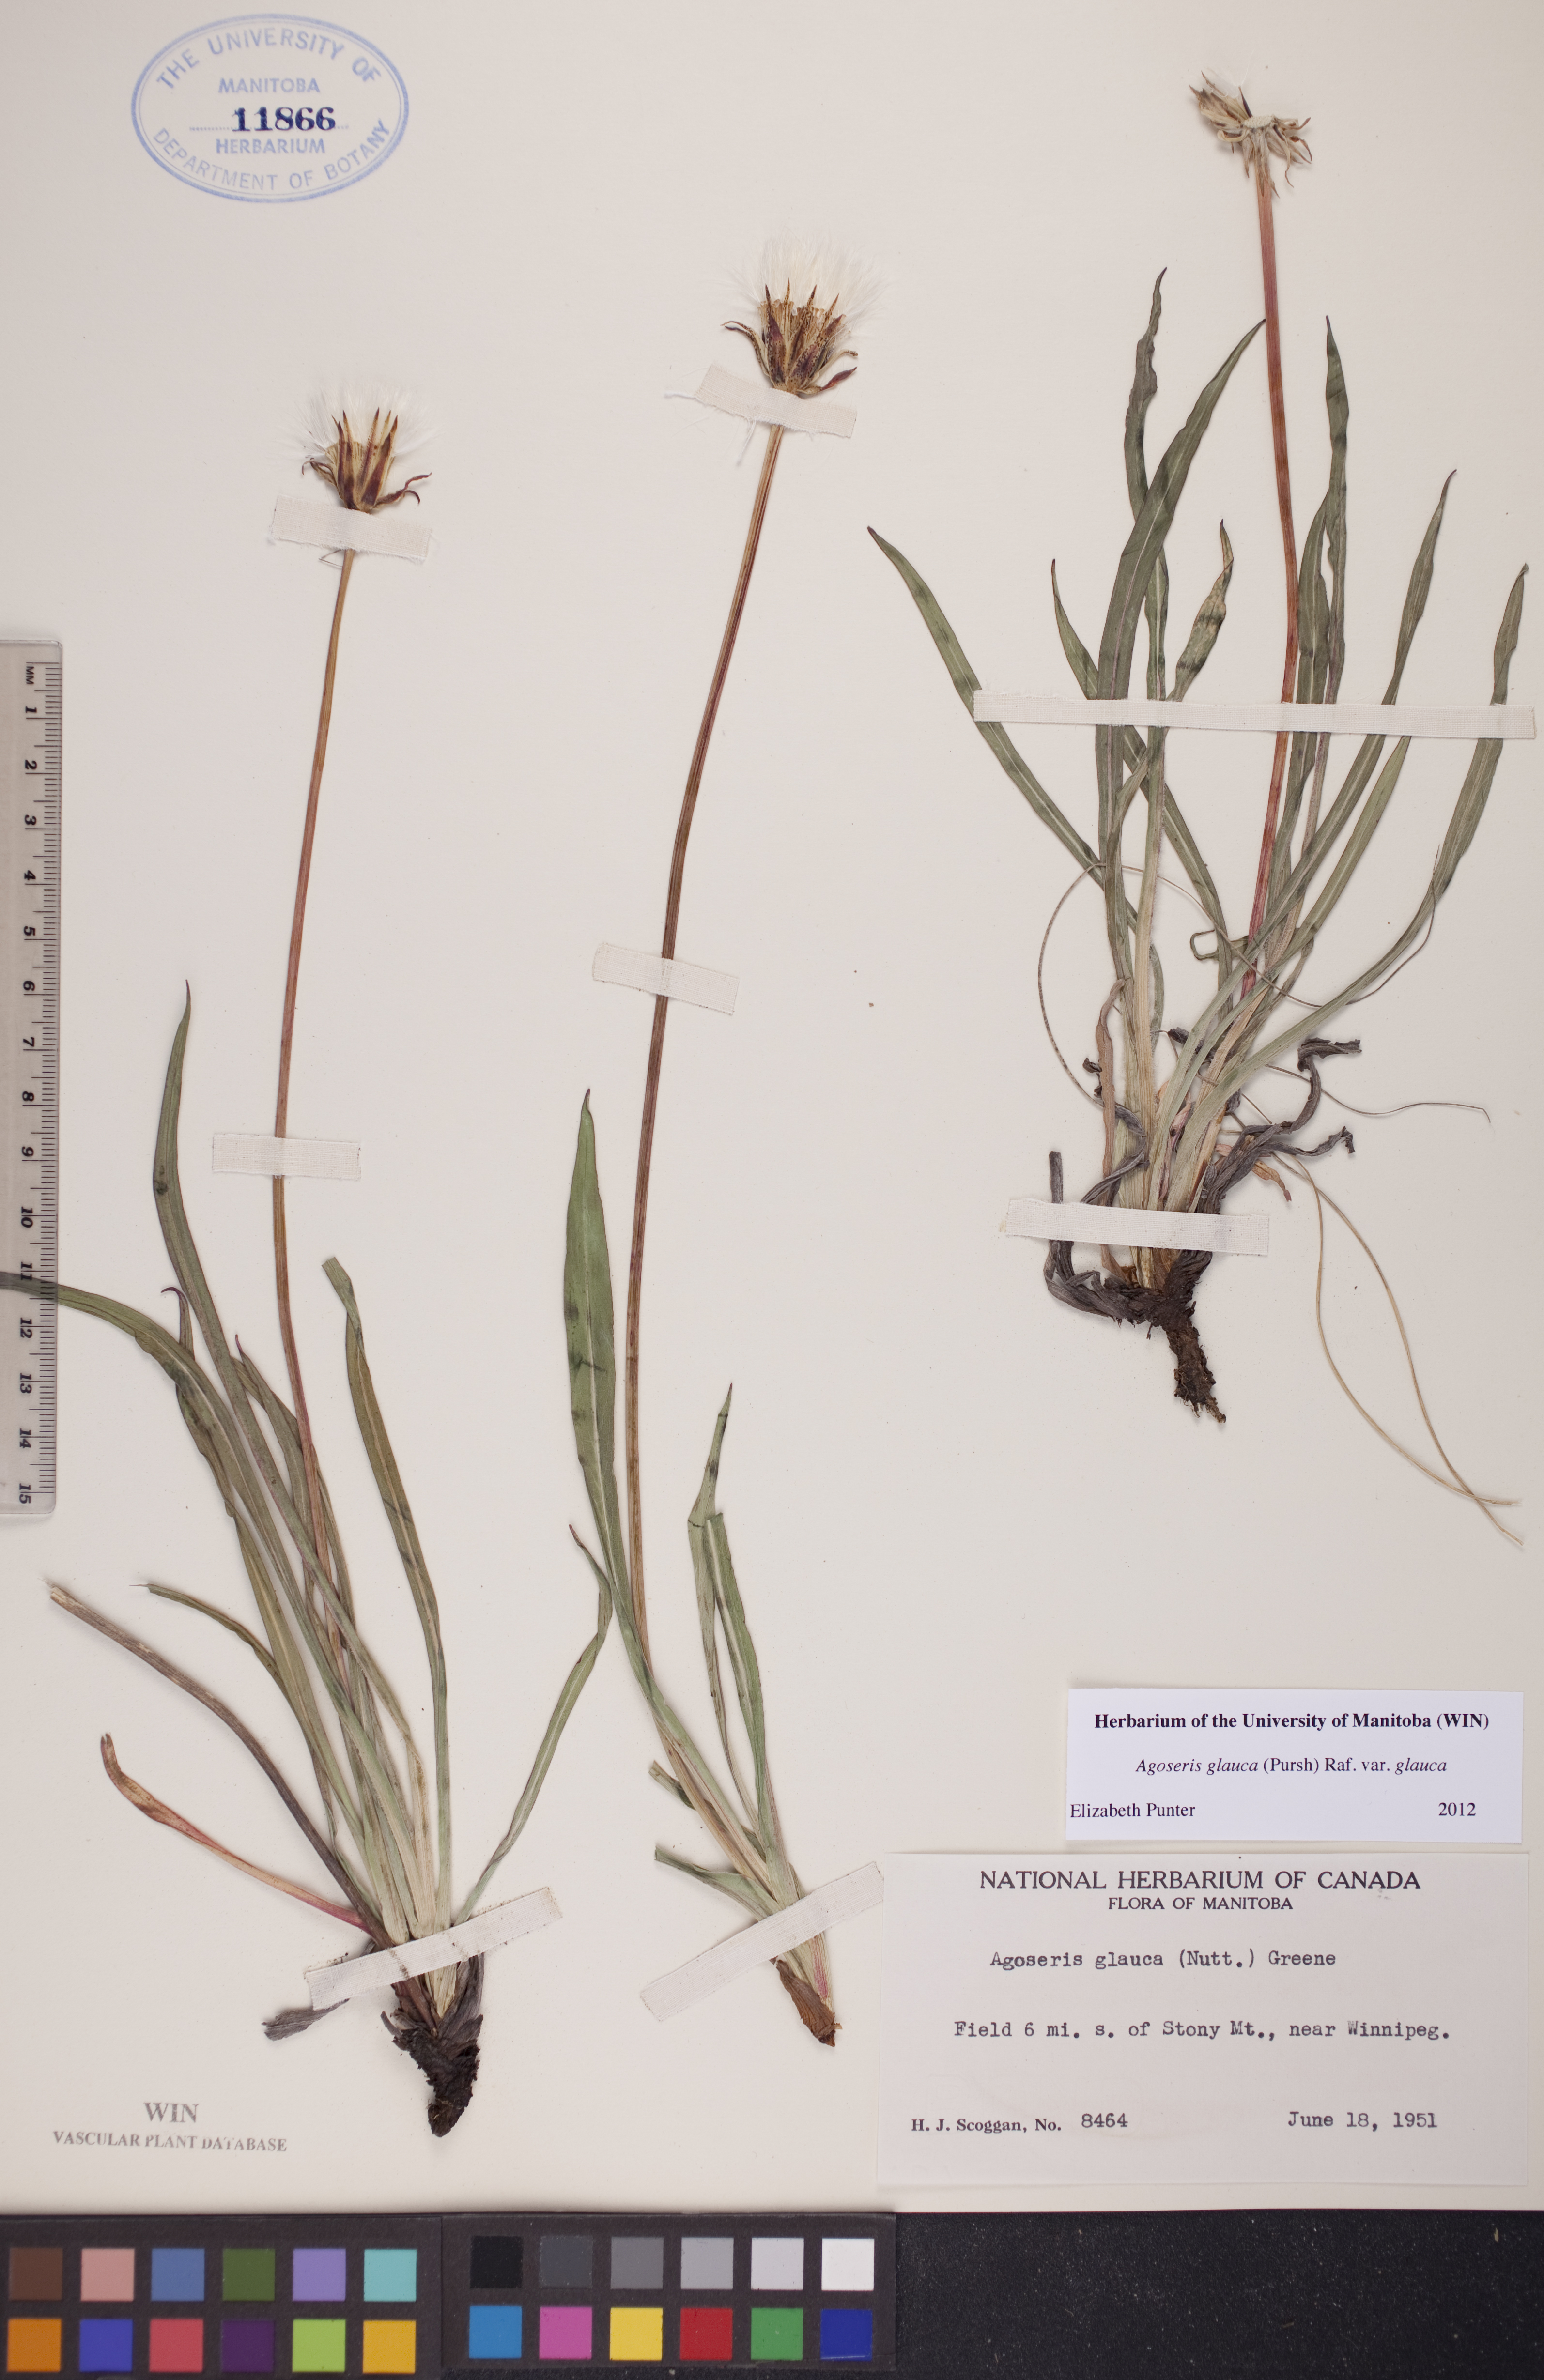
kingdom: Plantae
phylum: Tracheophyta
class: Magnoliopsida
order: Asterales
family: Asteraceae
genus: Agoseris
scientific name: Agoseris glauca
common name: Prairie agoseris
